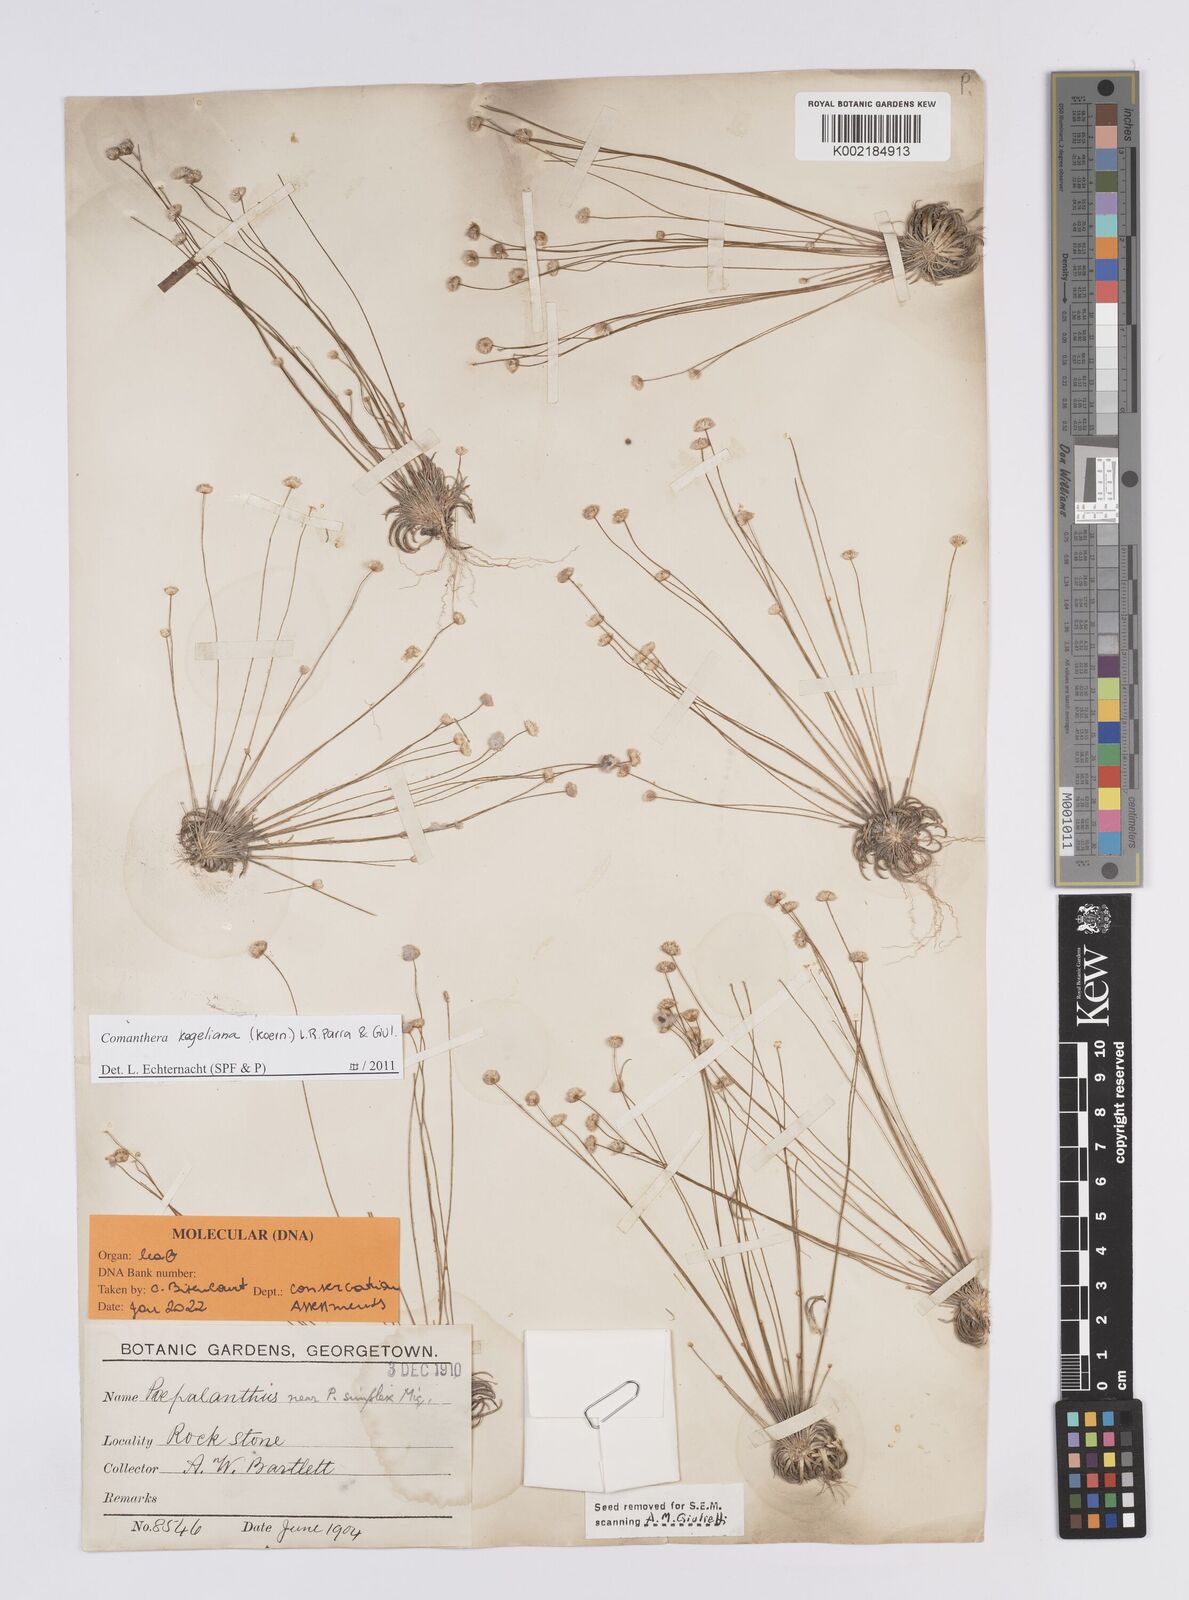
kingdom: Plantae
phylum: Tracheophyta
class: Liliopsida
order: Poales
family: Eriocaulaceae
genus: Comanthera
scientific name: Comanthera kegeliana
